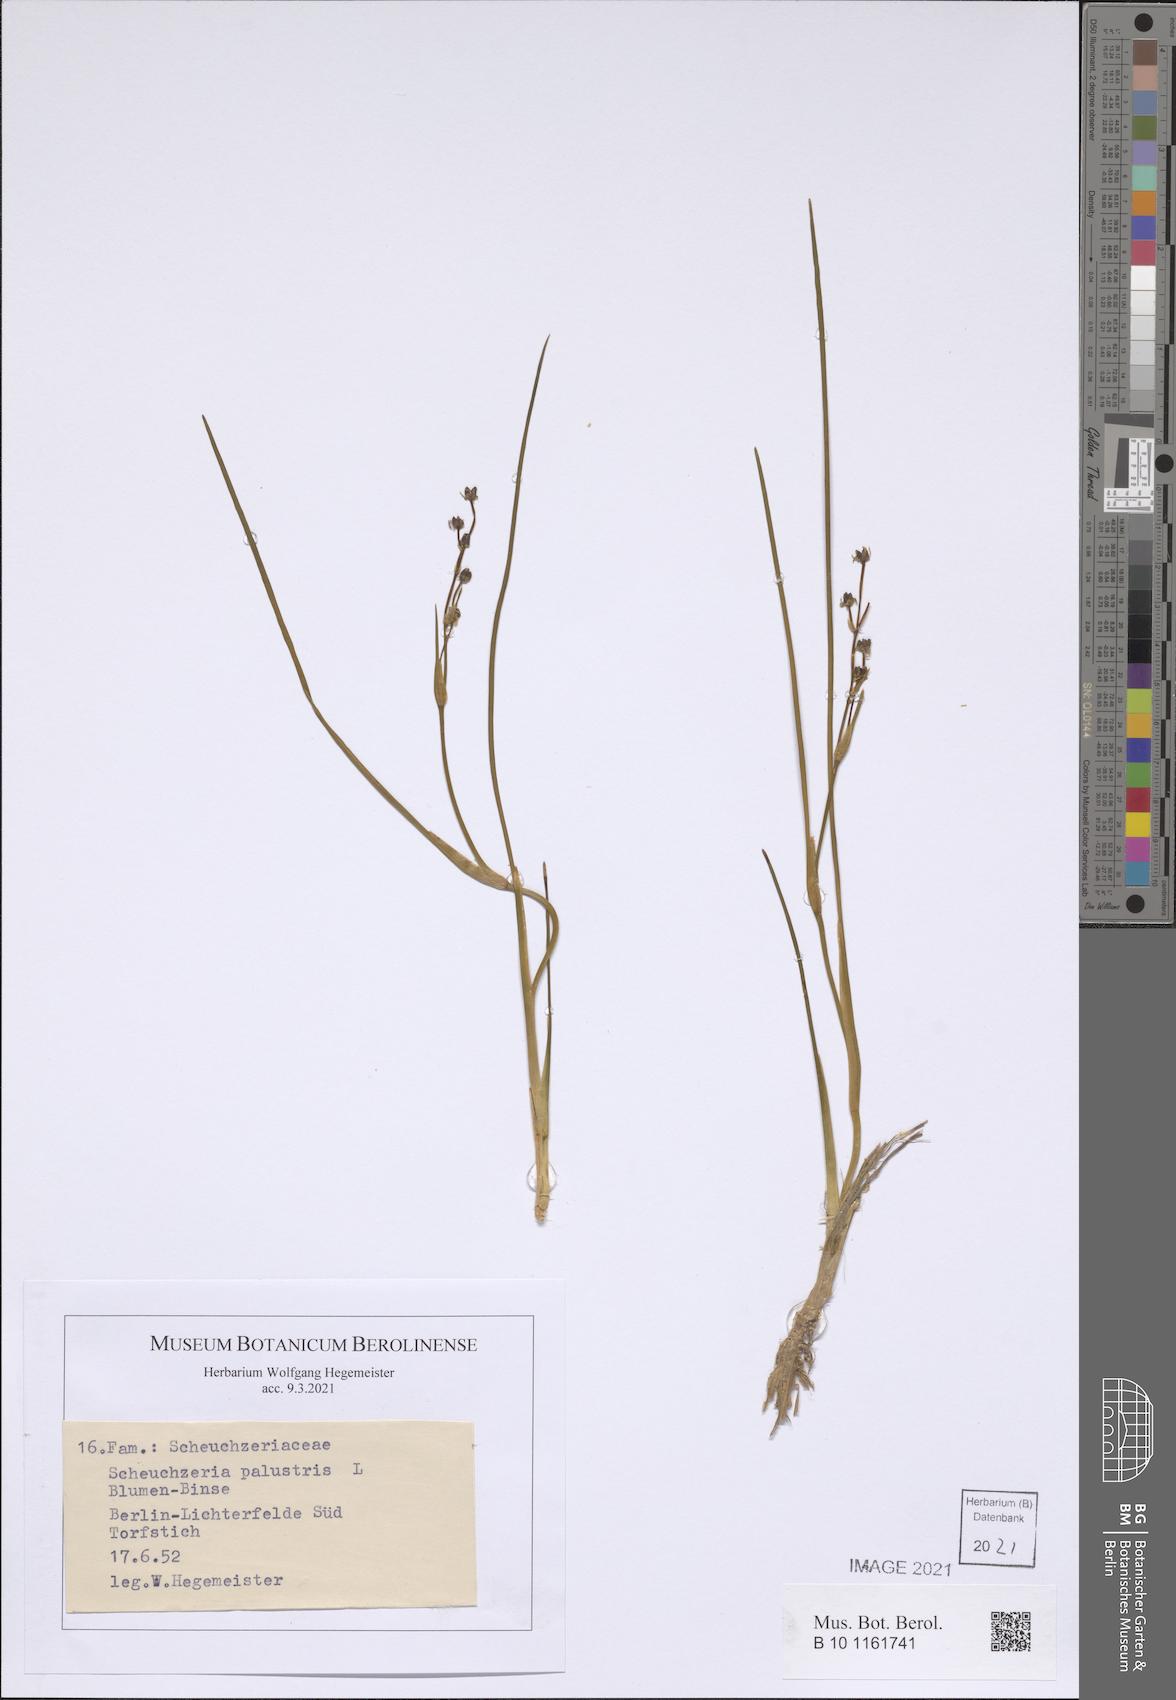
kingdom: Plantae
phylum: Tracheophyta
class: Liliopsida
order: Alismatales
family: Scheuchzeriaceae
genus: Scheuchzeria
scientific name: Scheuchzeria palustris
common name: Rannoch-rush
